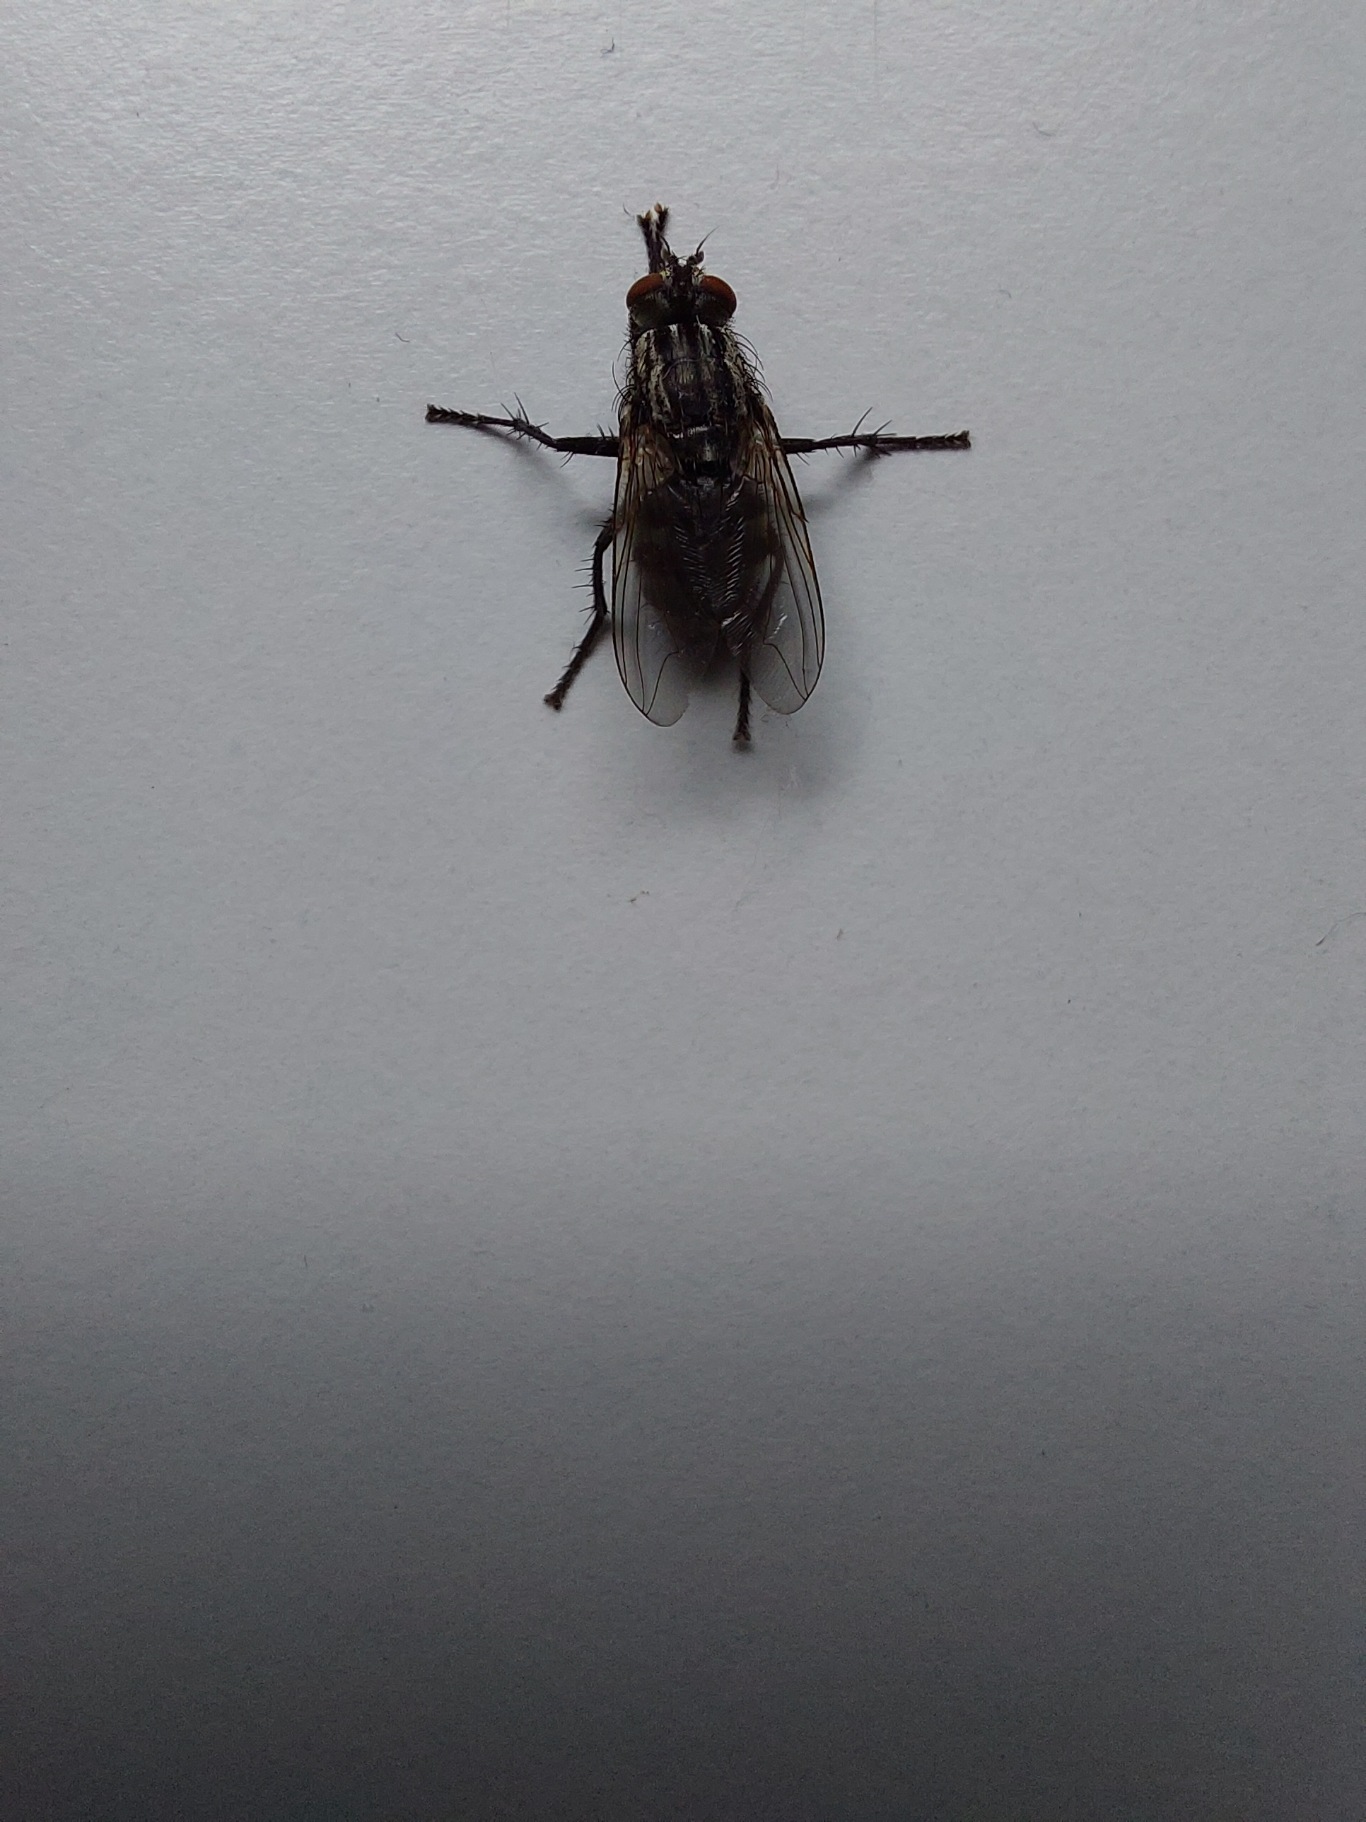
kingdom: Animalia
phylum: Arthropoda
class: Insecta
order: Diptera
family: Sarcophagidae
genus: Sarcophaga
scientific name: Sarcophaga
